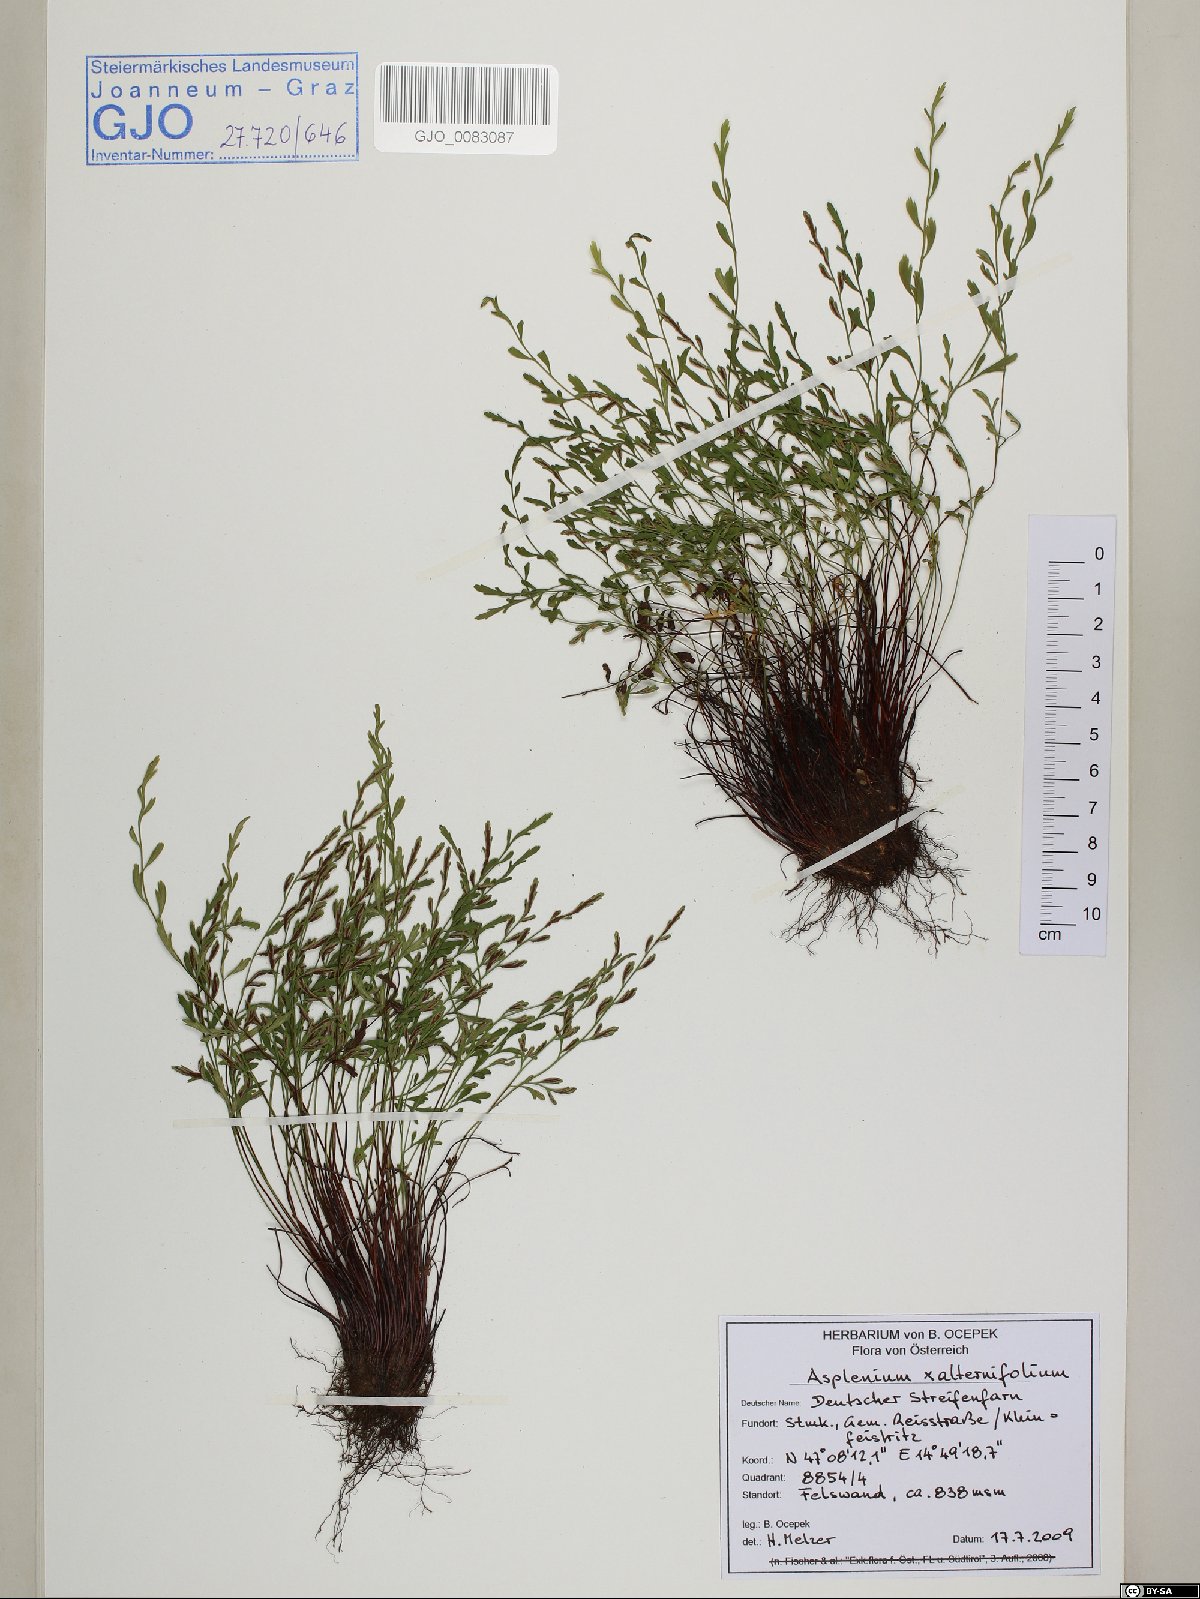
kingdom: Plantae
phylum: Tracheophyta
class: Polypodiopsida
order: Polypodiales
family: Aspleniaceae
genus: Asplenium
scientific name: Asplenium alternifolium
